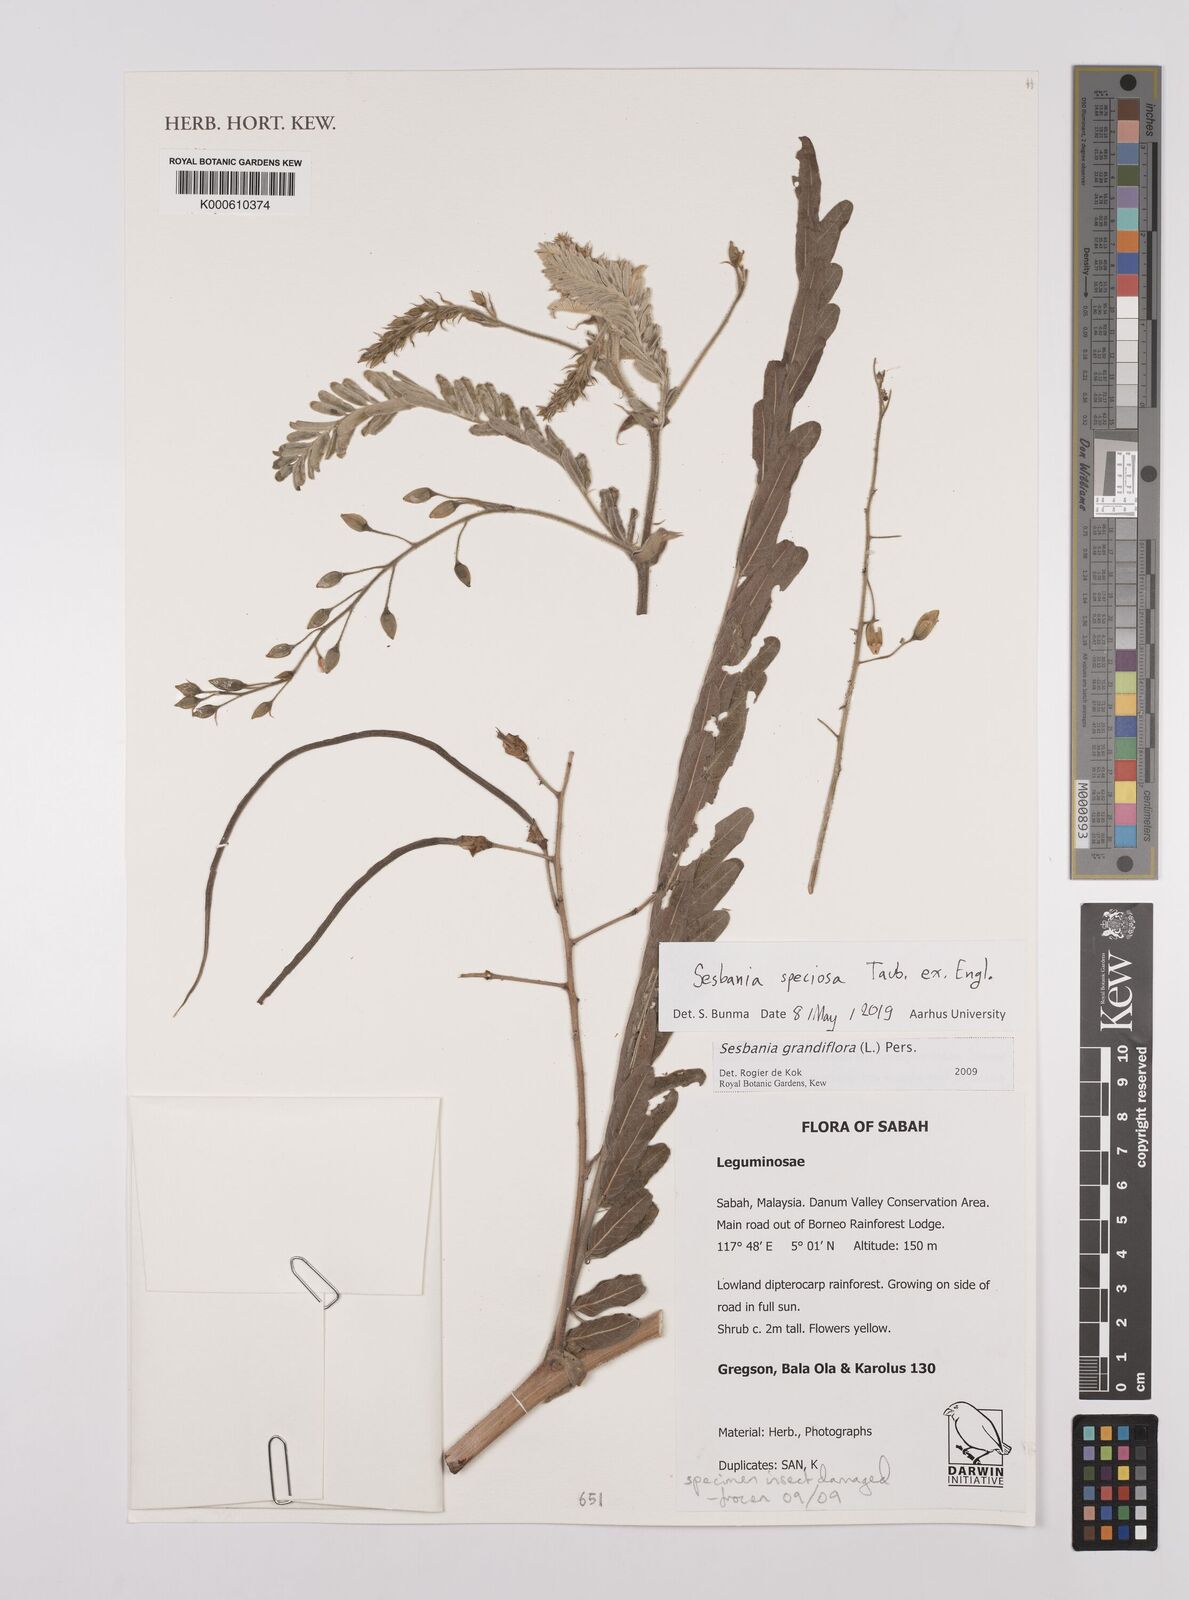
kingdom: Plantae
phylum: Tracheophyta
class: Magnoliopsida
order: Fabales
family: Fabaceae
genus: Sesbania
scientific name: Sesbania
